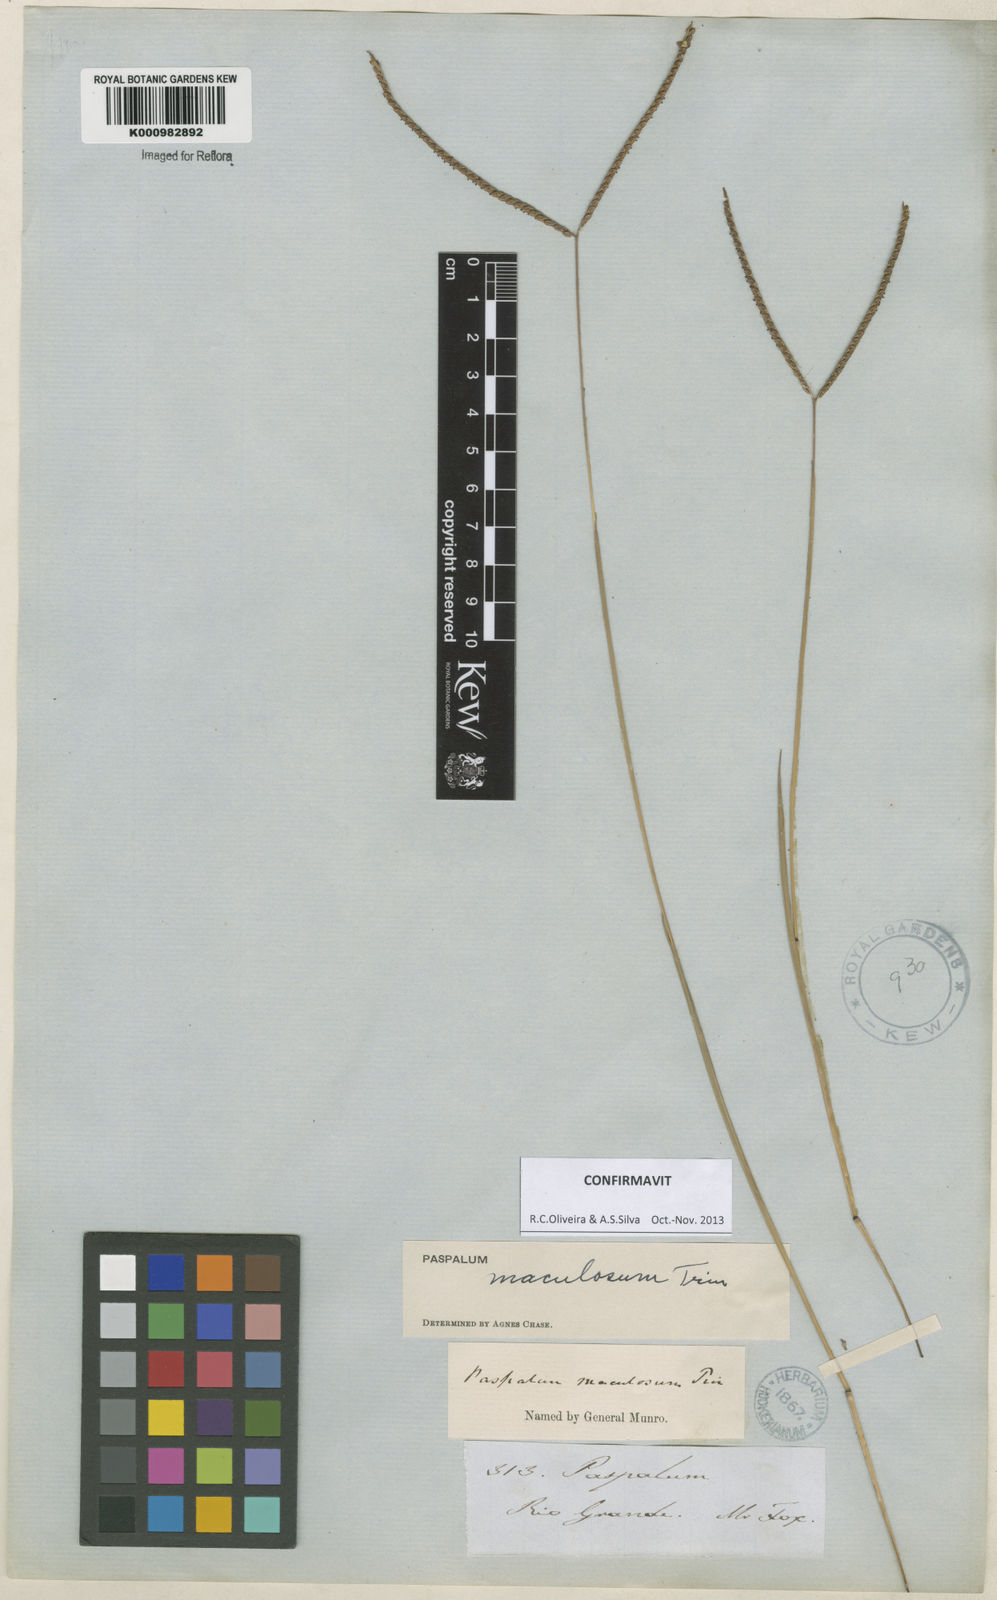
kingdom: Plantae
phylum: Tracheophyta
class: Liliopsida
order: Poales
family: Poaceae
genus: Paspalum
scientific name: Paspalum maculosum
